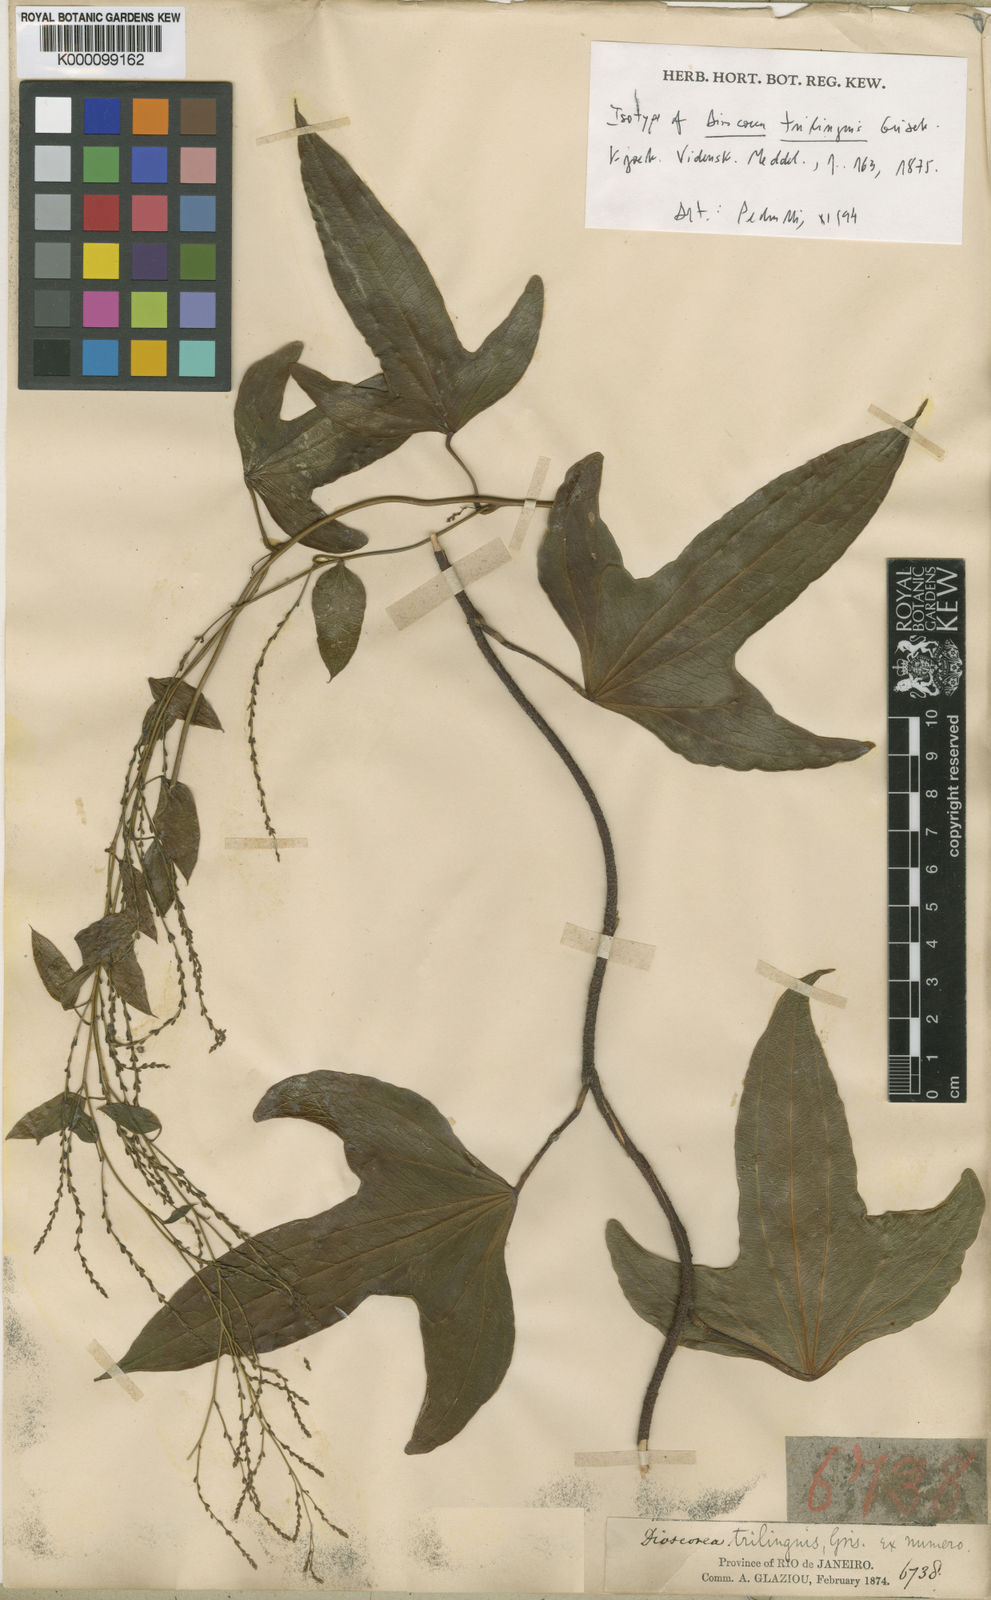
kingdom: Plantae
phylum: Tracheophyta
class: Liliopsida
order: Dioscoreales
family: Dioscoreaceae
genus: Dioscorea
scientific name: Dioscorea trilinguis
